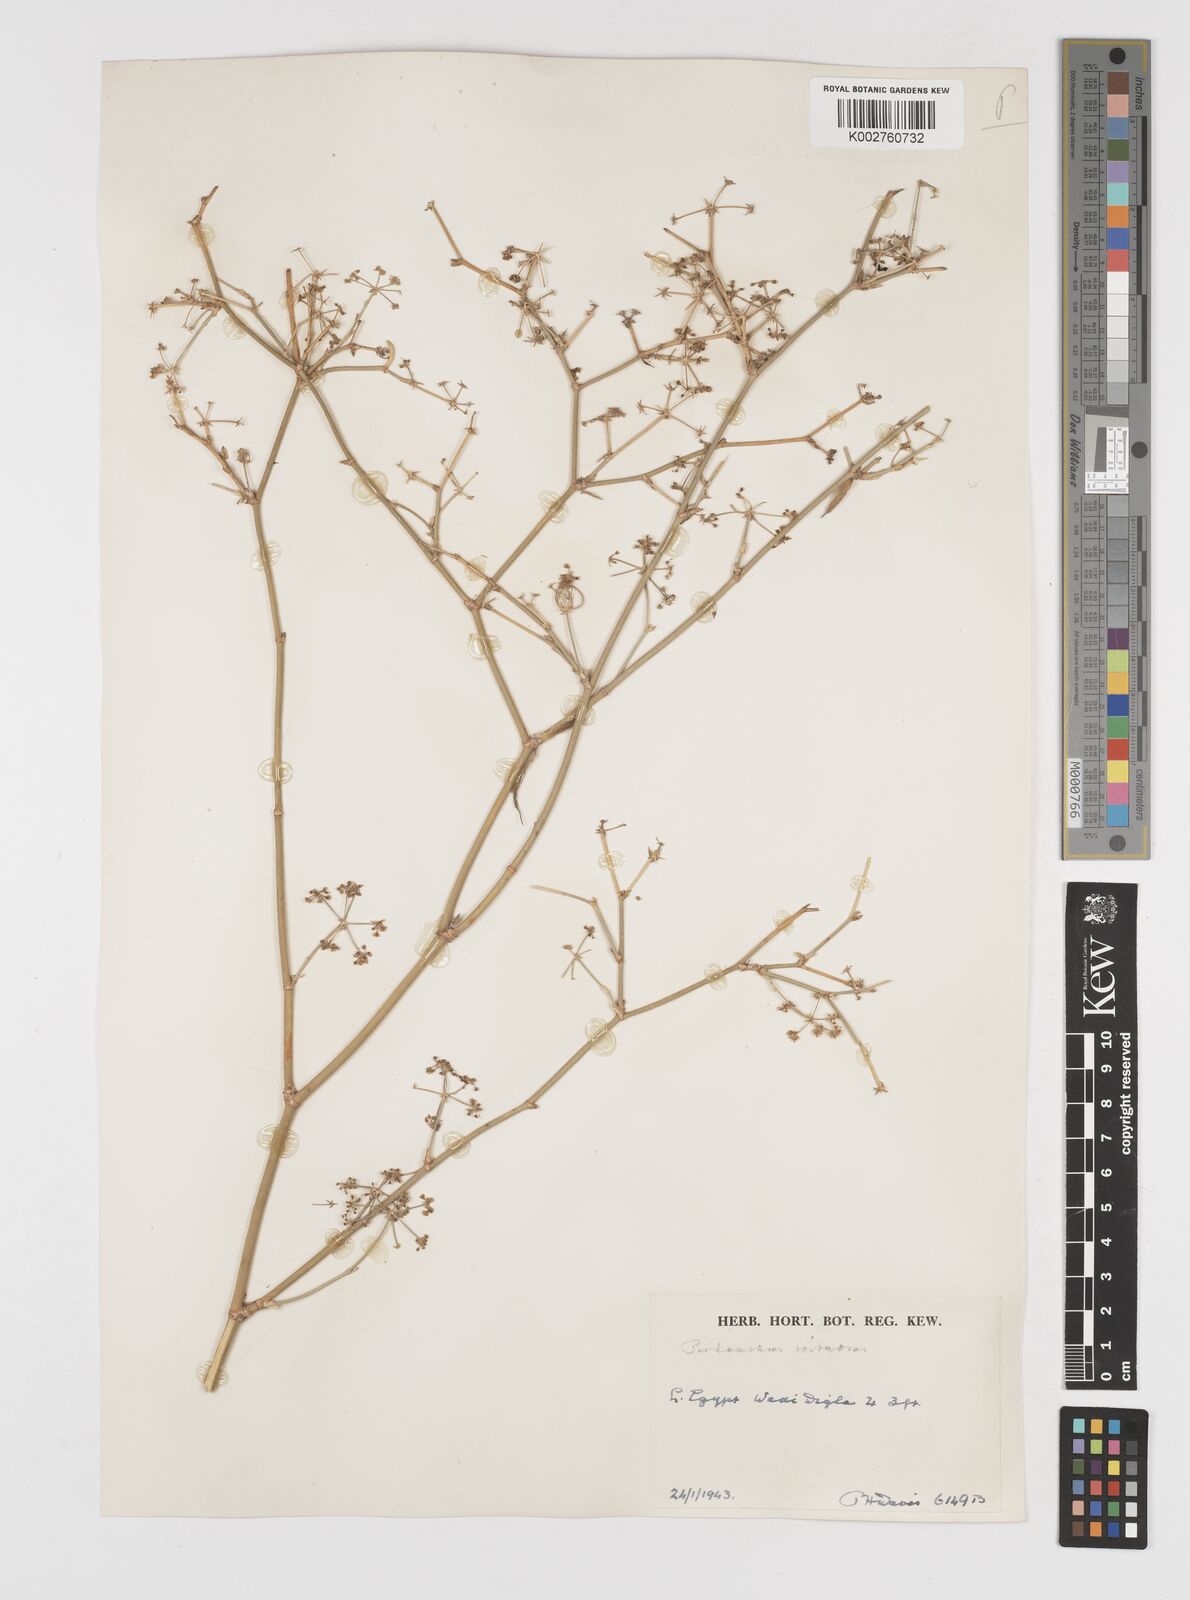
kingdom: Plantae
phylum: Tracheophyta
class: Magnoliopsida
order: Apiales
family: Apiaceae
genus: Deverra
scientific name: Deverra tortuosa
